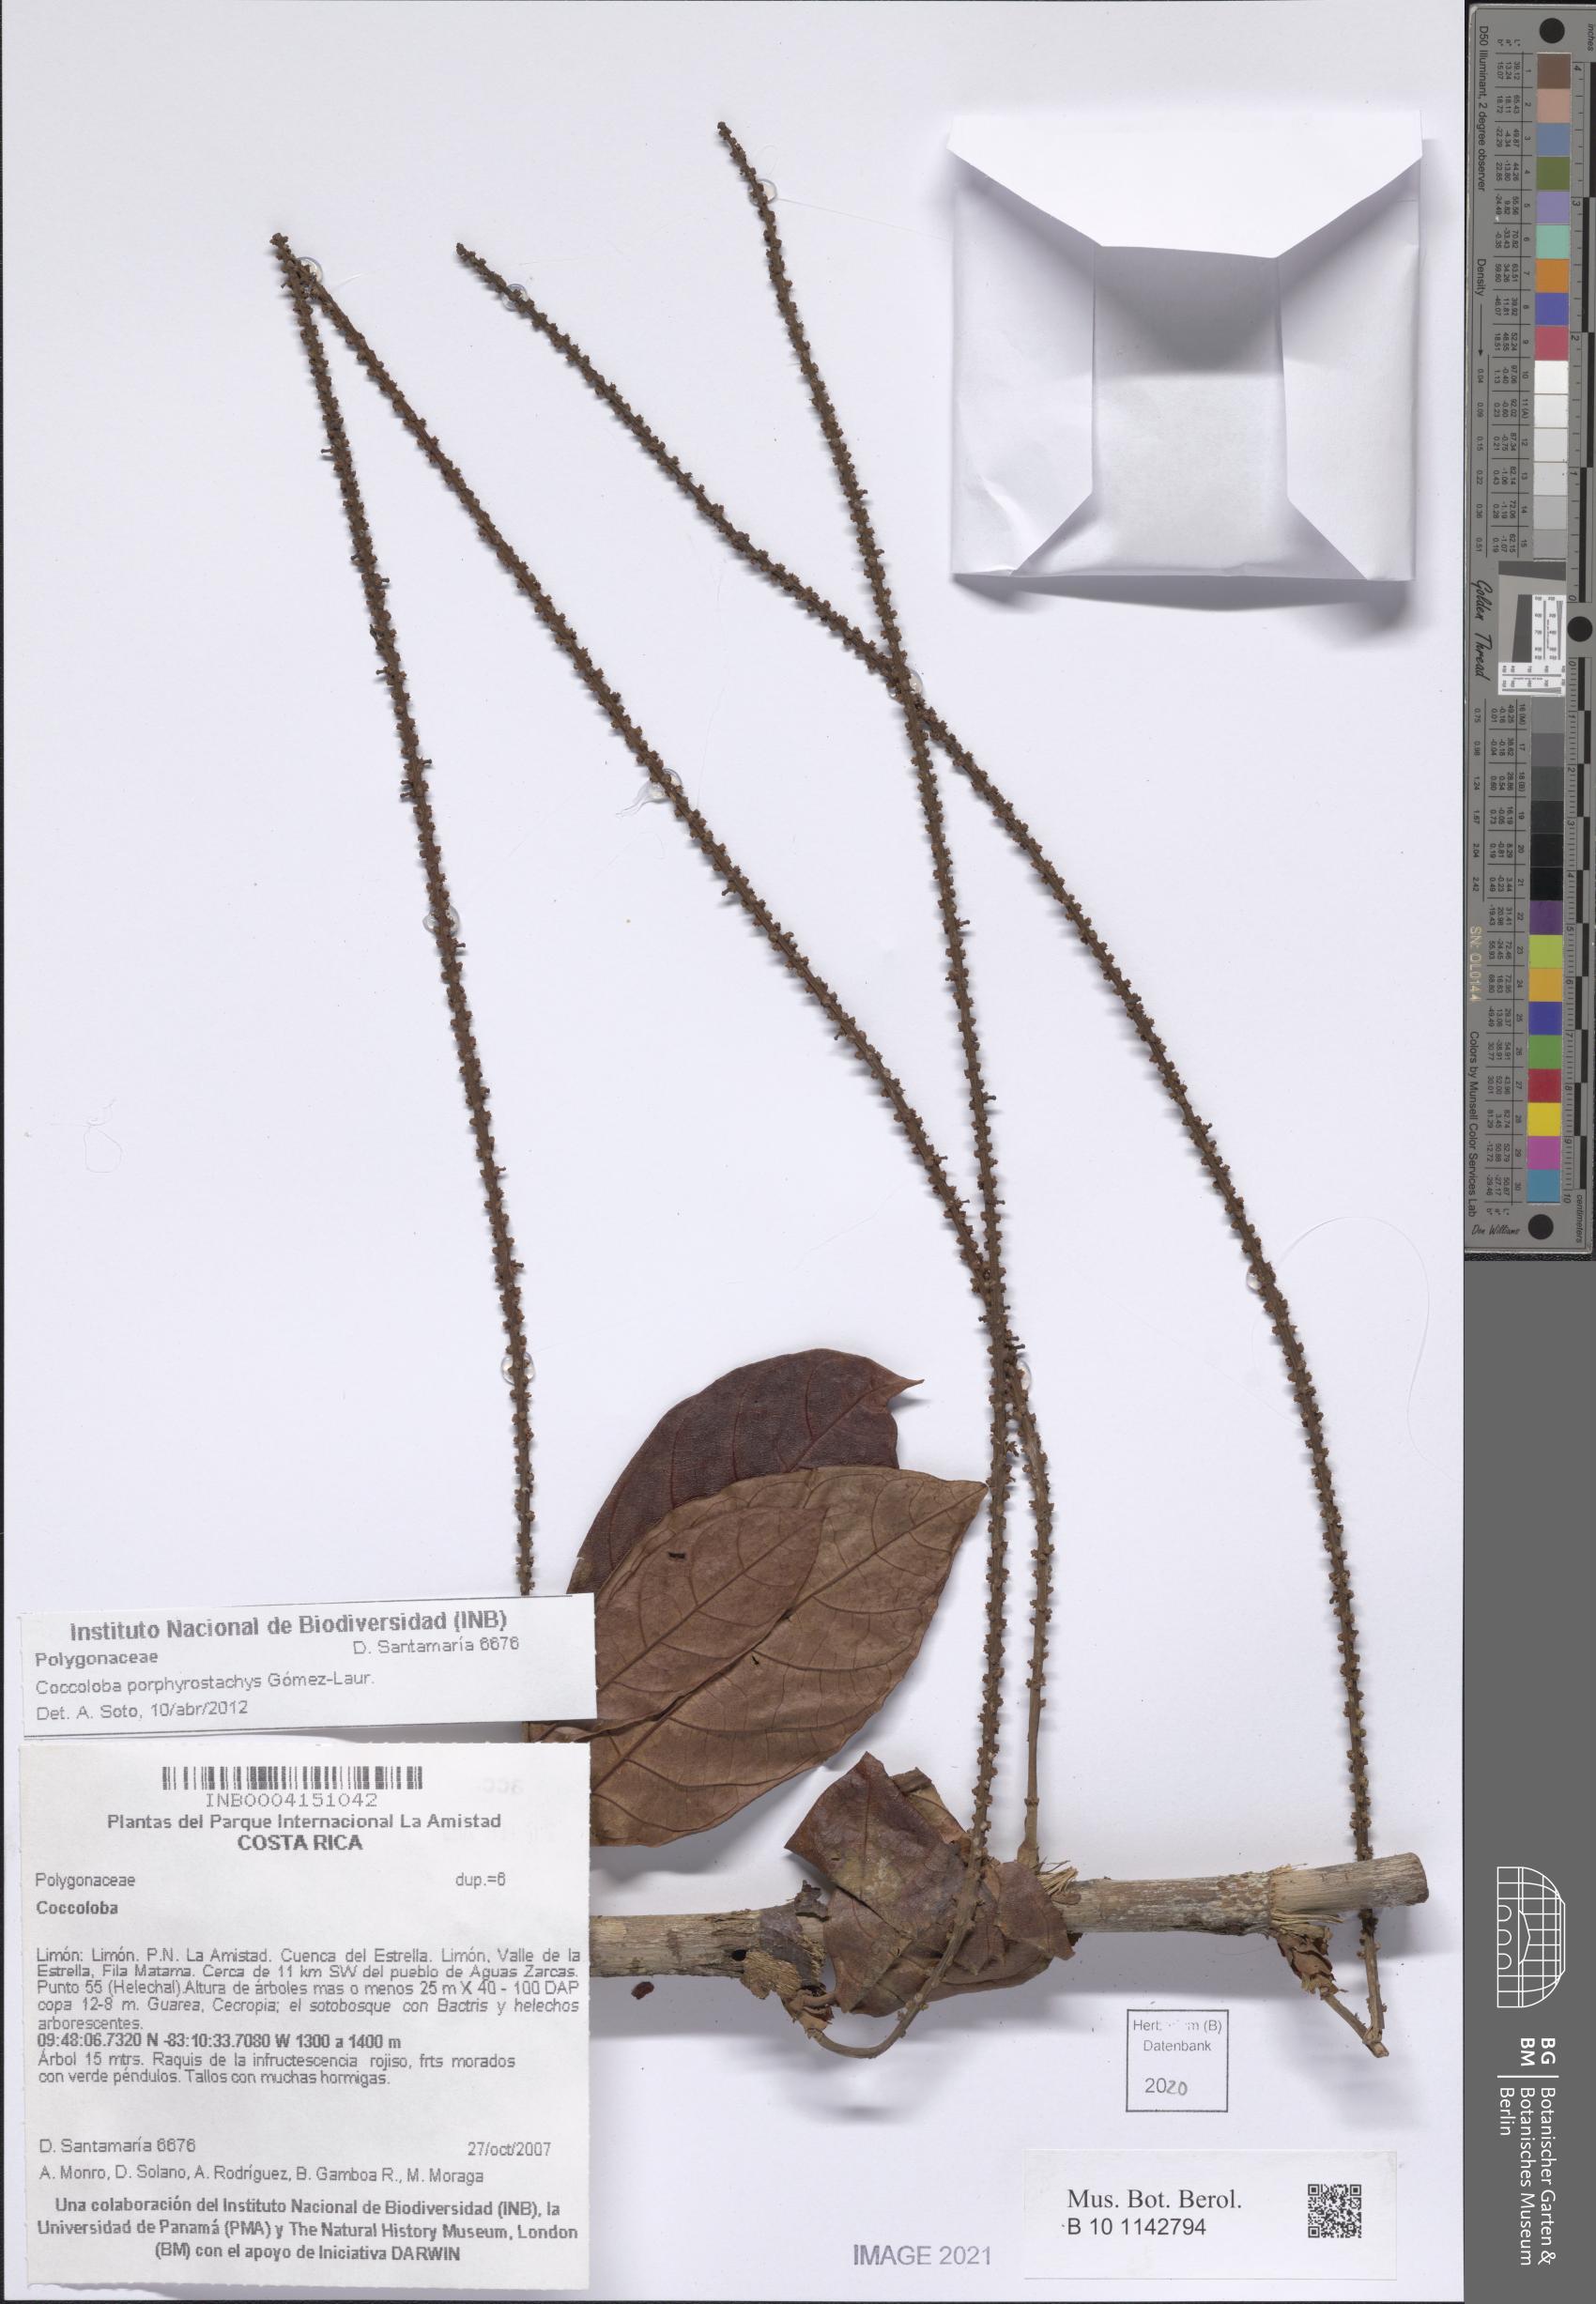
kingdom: Plantae
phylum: Tracheophyta
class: Magnoliopsida
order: Caryophyllales
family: Polygonaceae
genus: Coccoloba
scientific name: Coccoloba porphyrostachys
